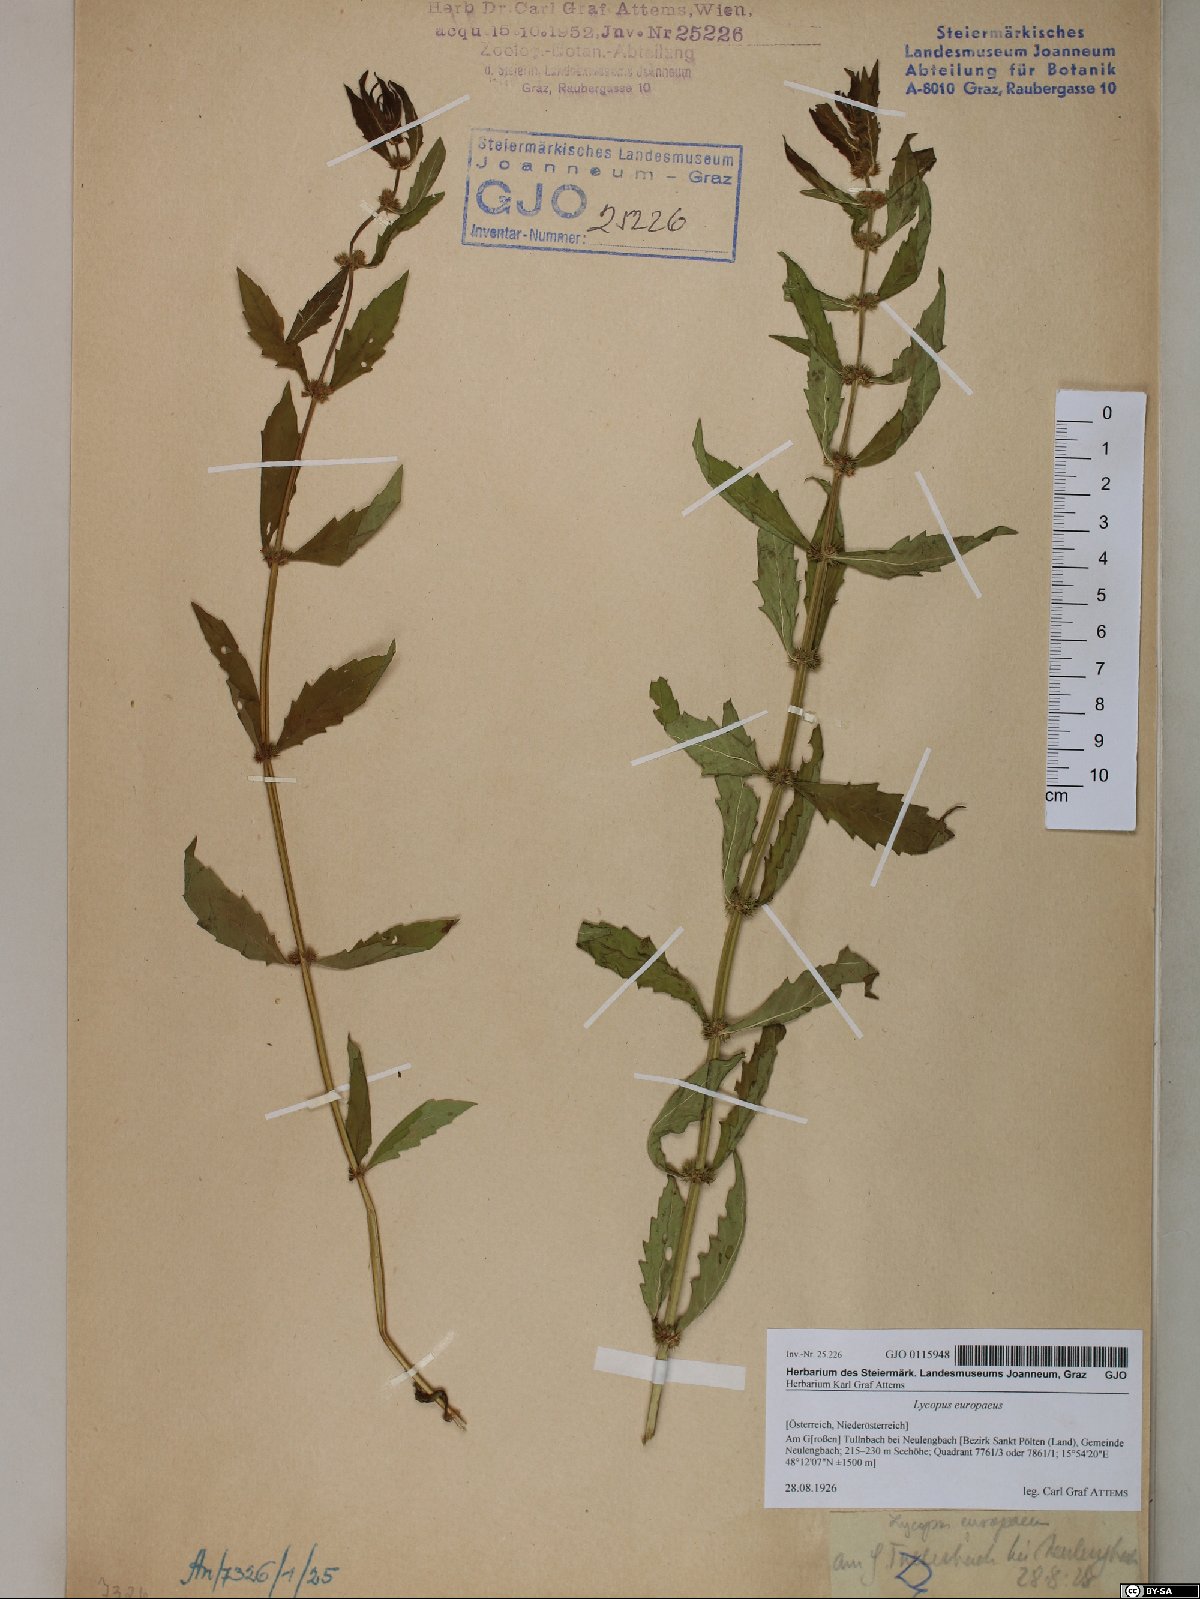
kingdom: Plantae
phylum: Tracheophyta
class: Magnoliopsida
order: Lamiales
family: Lamiaceae
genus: Lycopus
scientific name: Lycopus europaeus
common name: European bugleweed
